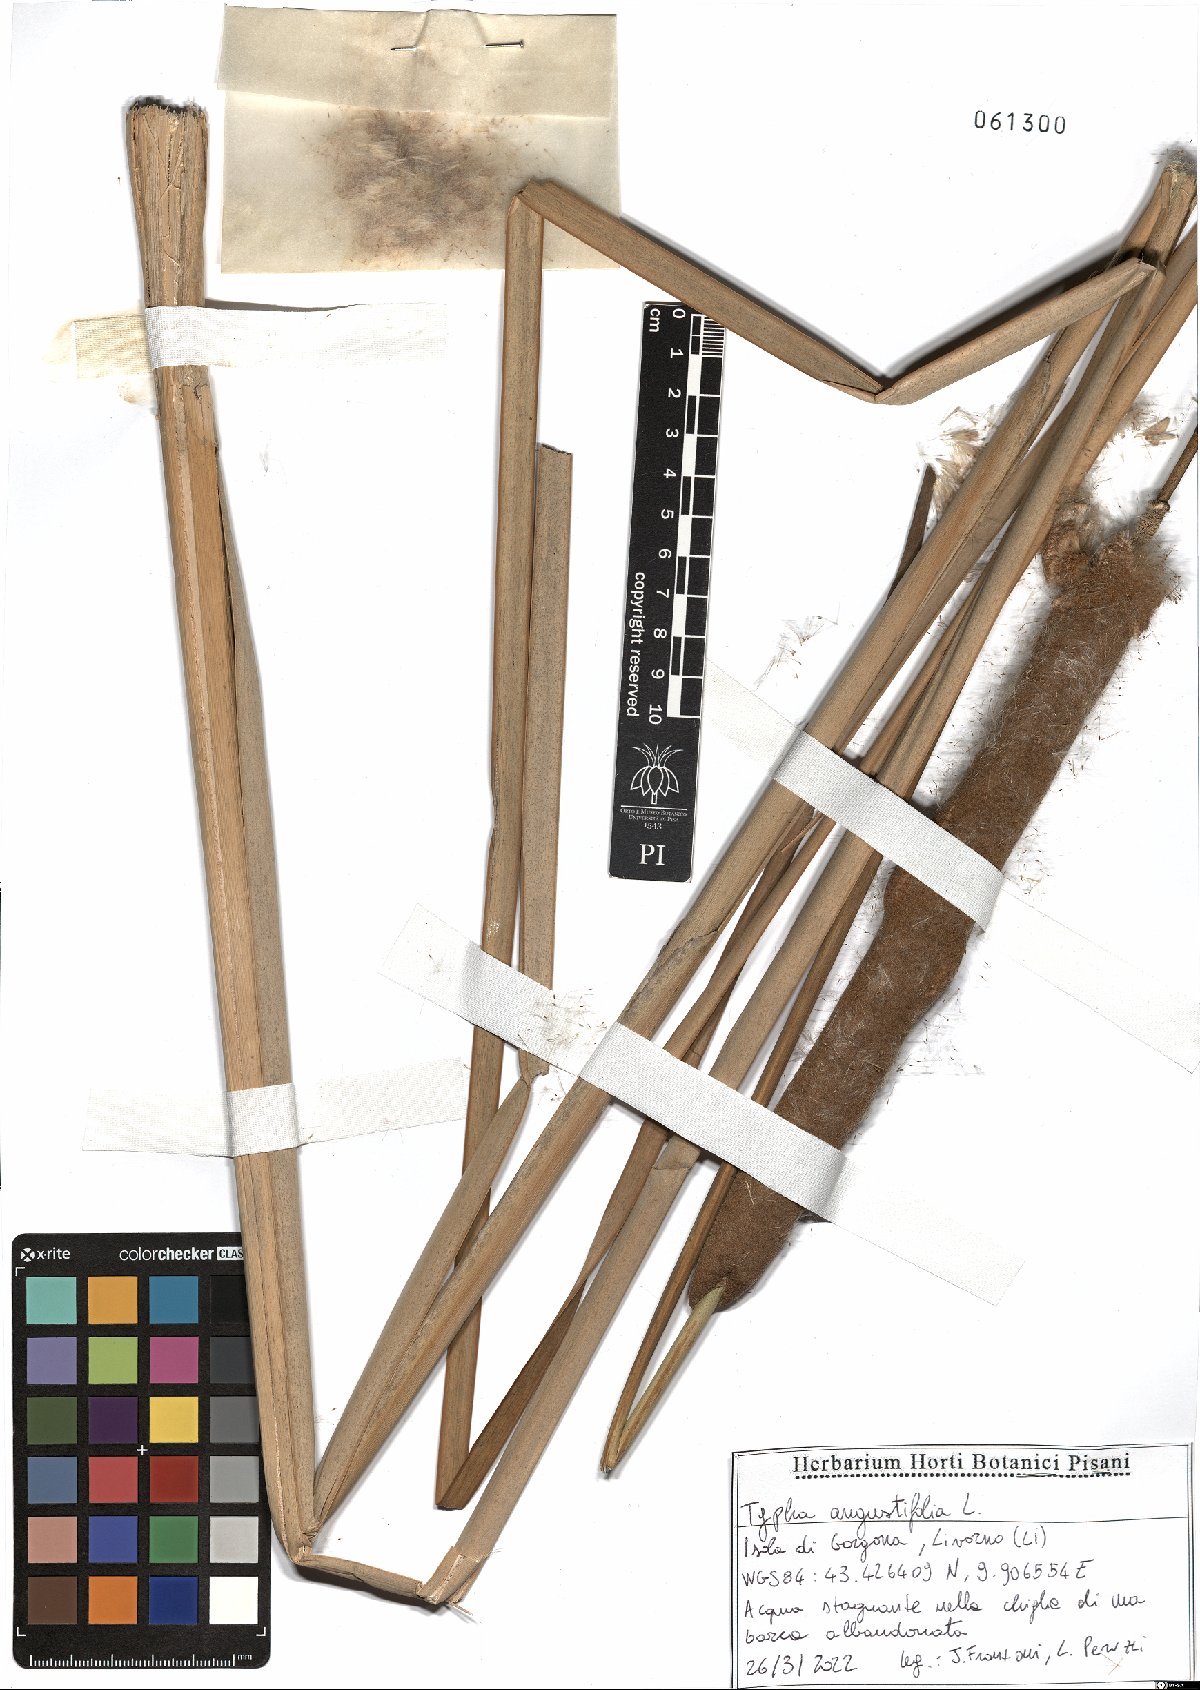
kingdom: Plantae
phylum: Tracheophyta
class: Liliopsida
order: Poales
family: Typhaceae
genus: Typha
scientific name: Typha angustifolia
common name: Lesser bulrush
